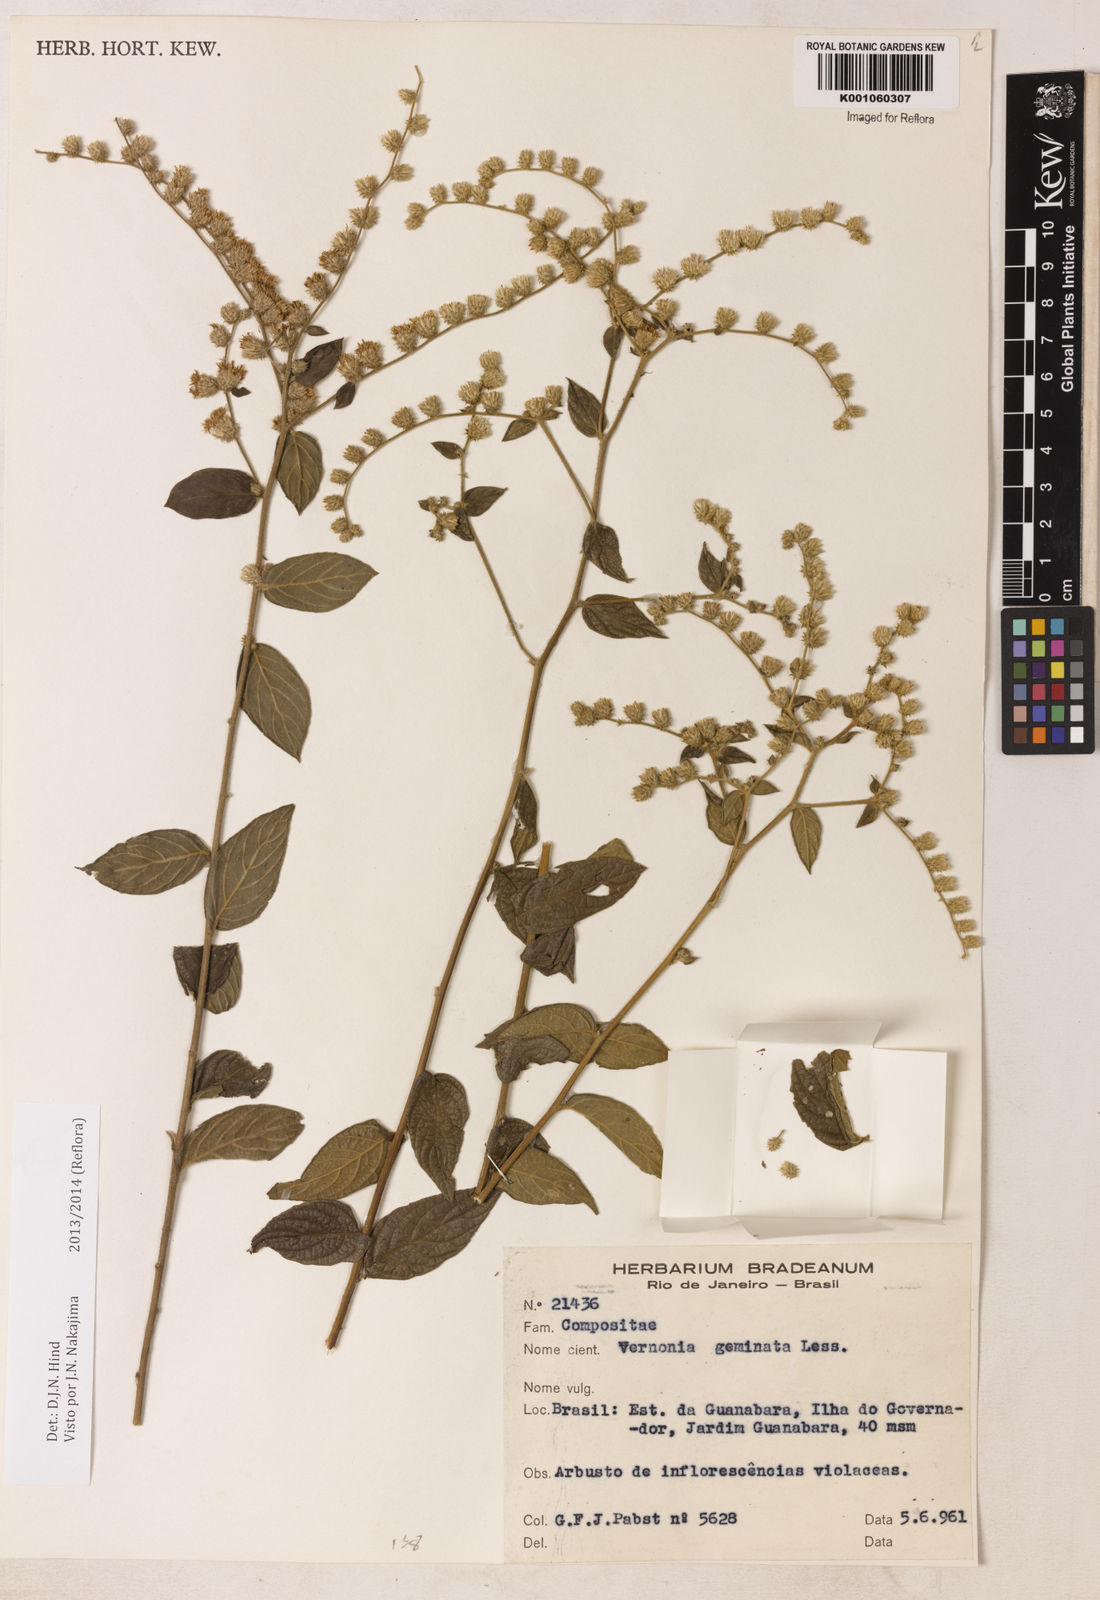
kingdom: Plantae
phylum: Tracheophyta
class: Magnoliopsida
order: Asterales
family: Asteraceae
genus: Lepidaploa
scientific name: Lepidaploa canescens
